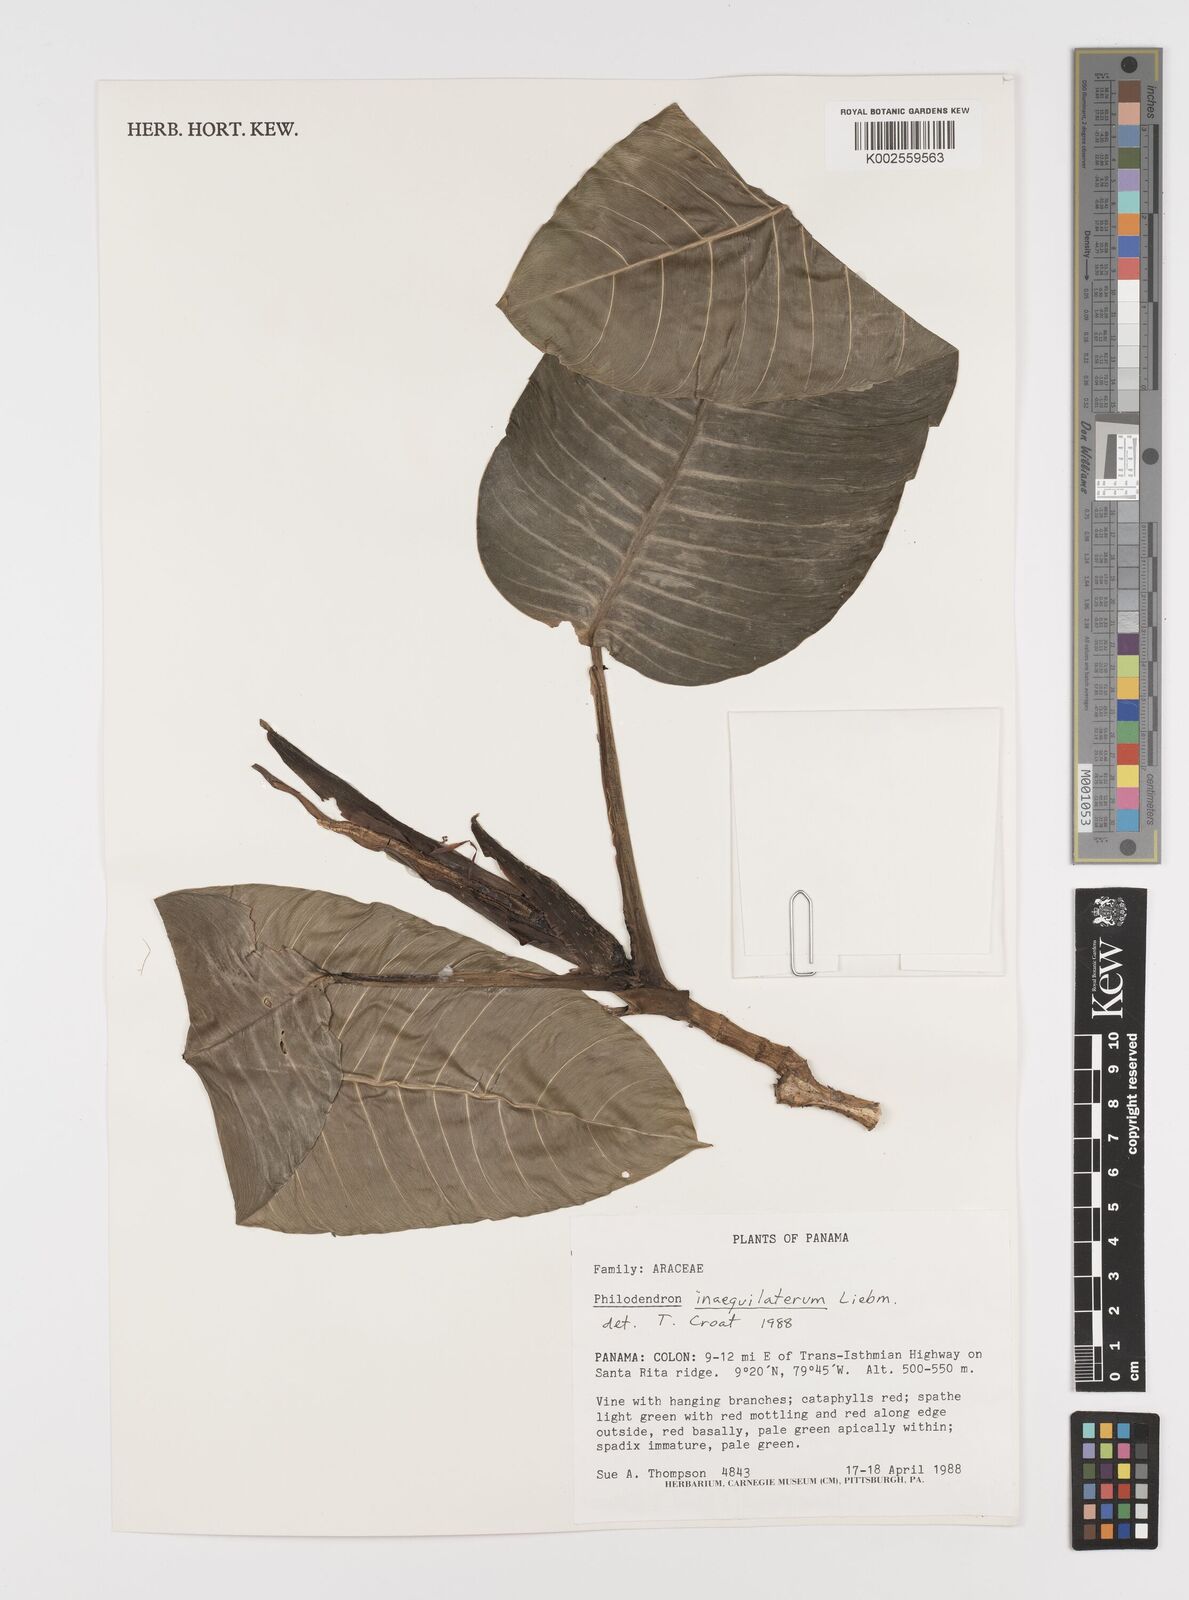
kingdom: Plantae
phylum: Tracheophyta
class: Liliopsida
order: Alismatales
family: Araceae
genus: Philodendron
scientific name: Philodendron inaequilaterum
